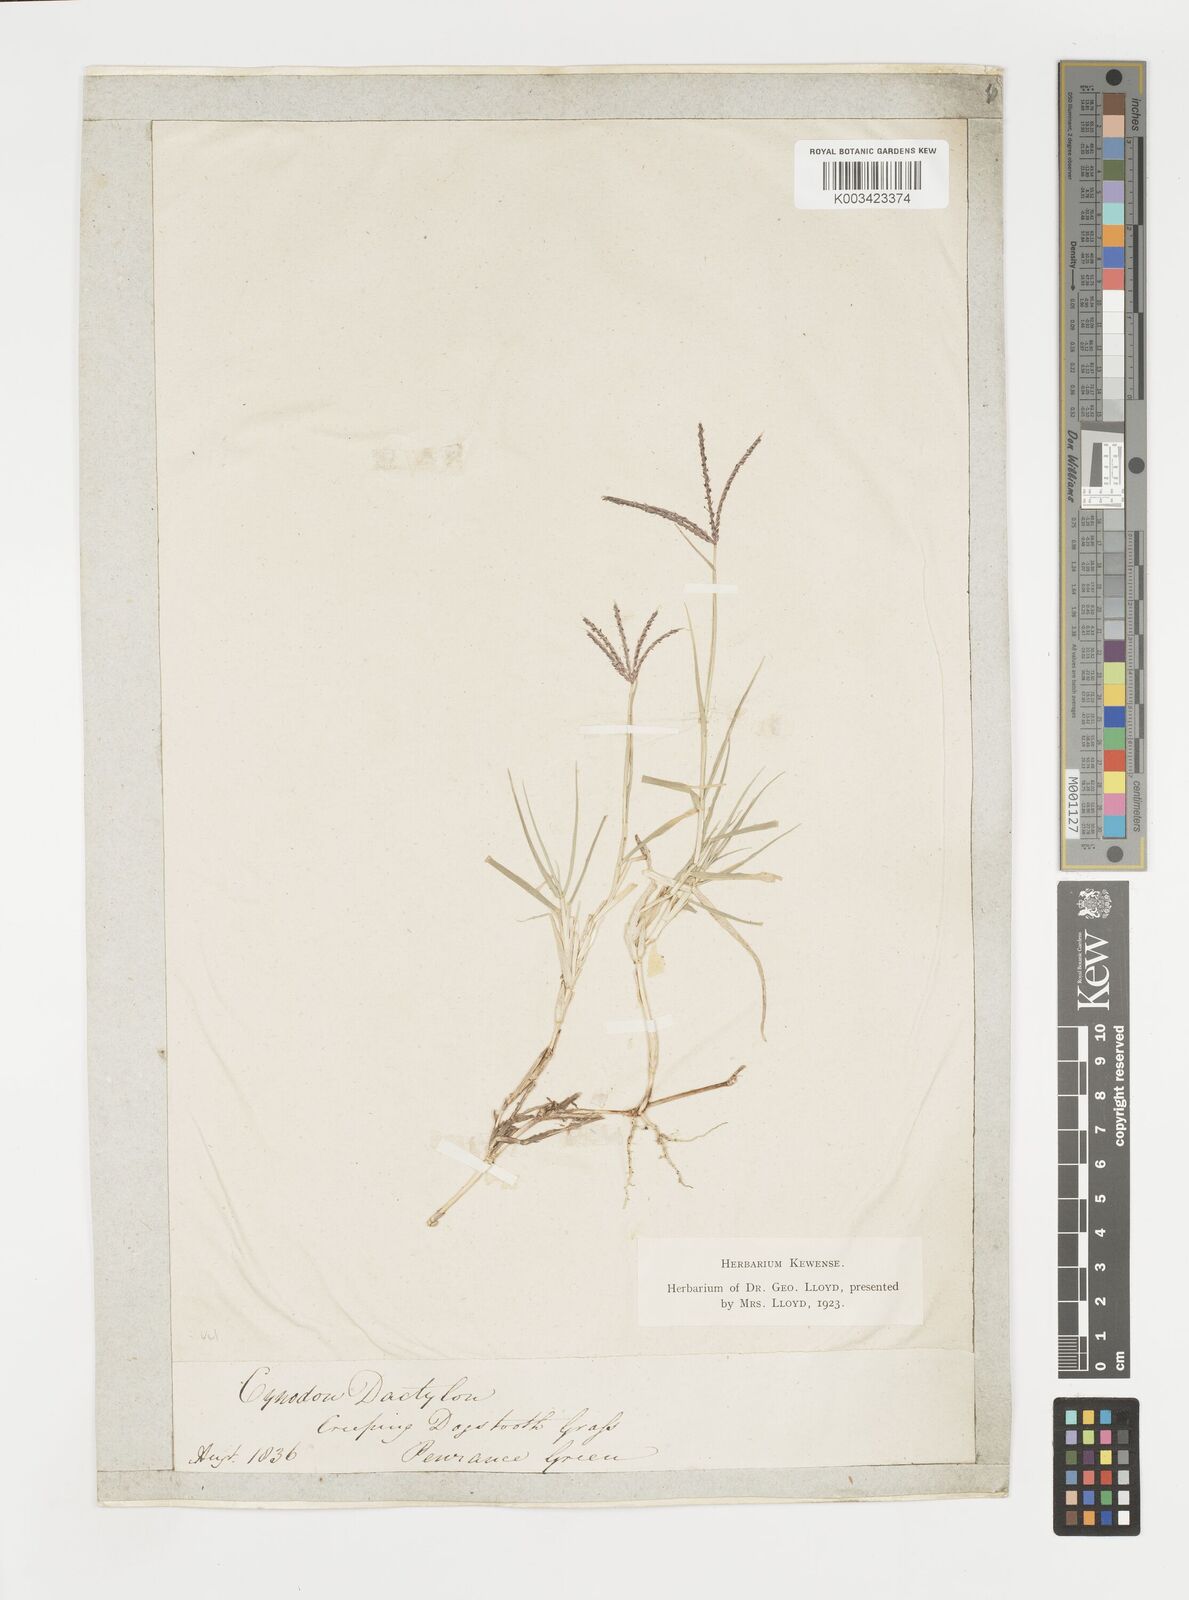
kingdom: Plantae
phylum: Tracheophyta
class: Liliopsida
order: Poales
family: Poaceae
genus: Cynodon
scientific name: Cynodon dactylon
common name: Bermuda grass
